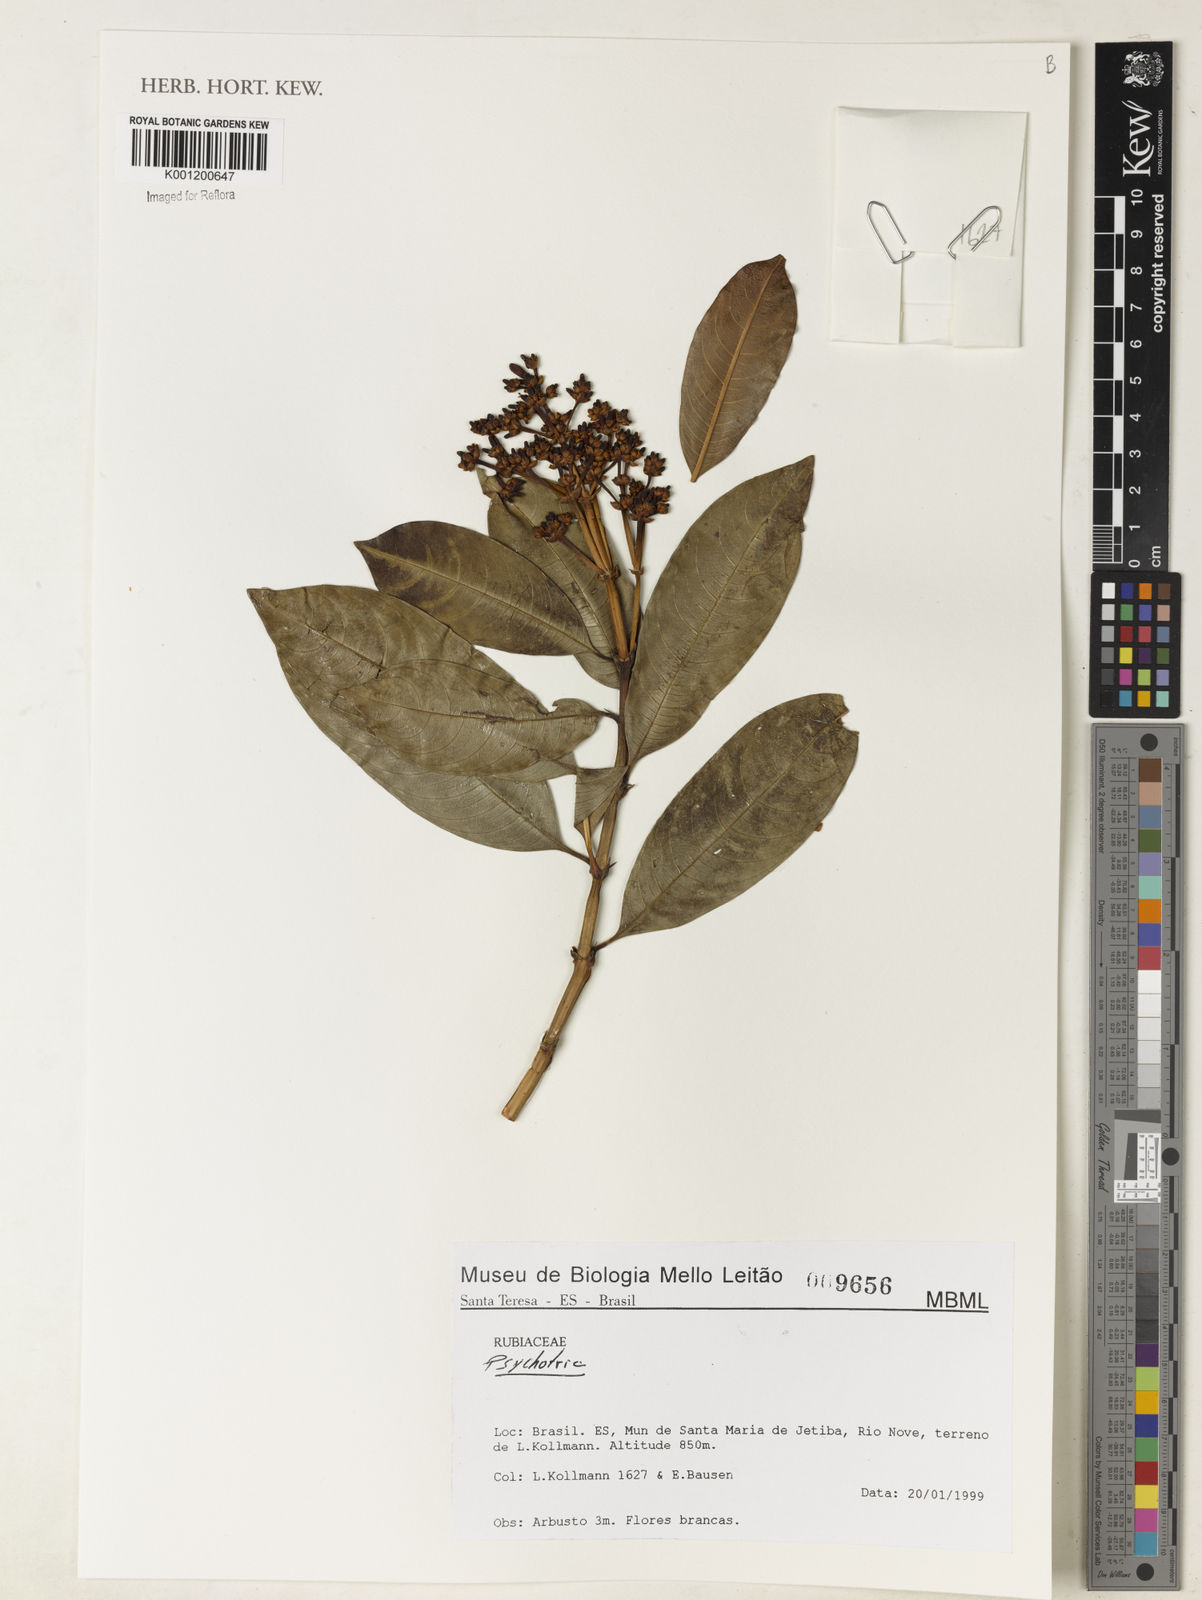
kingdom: Plantae
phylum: Tracheophyta
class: Magnoliopsida
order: Gentianales
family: Rubiaceae
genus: Psychotria
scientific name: Psychotria
